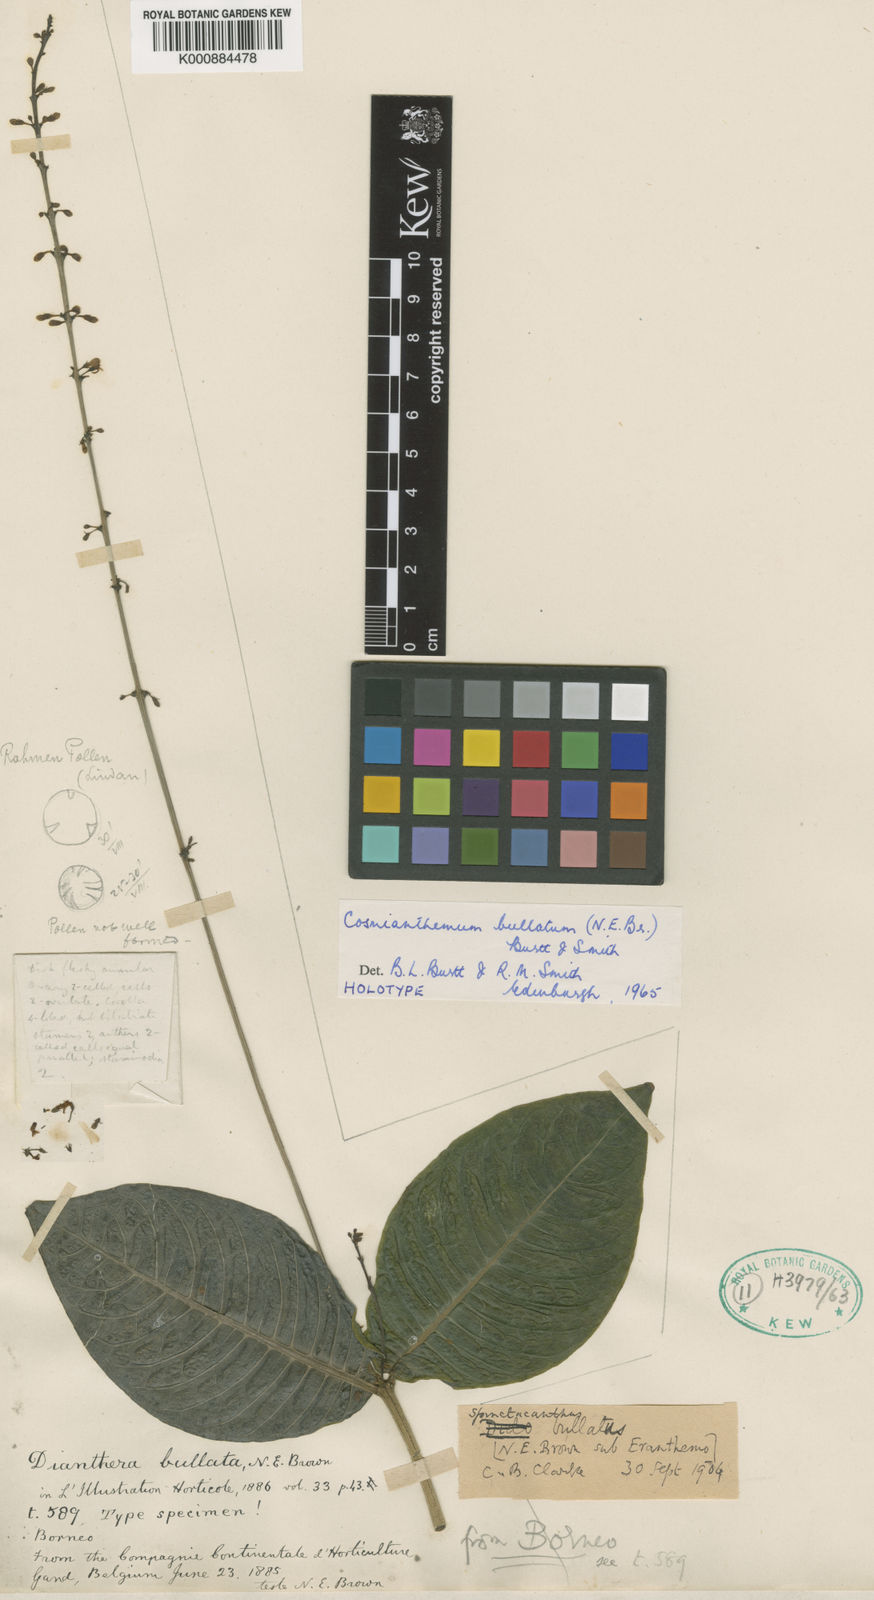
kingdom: Plantae
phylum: Tracheophyta
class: Magnoliopsida
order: Lamiales
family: Acanthaceae
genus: Cosmianthemum
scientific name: Cosmianthemum
